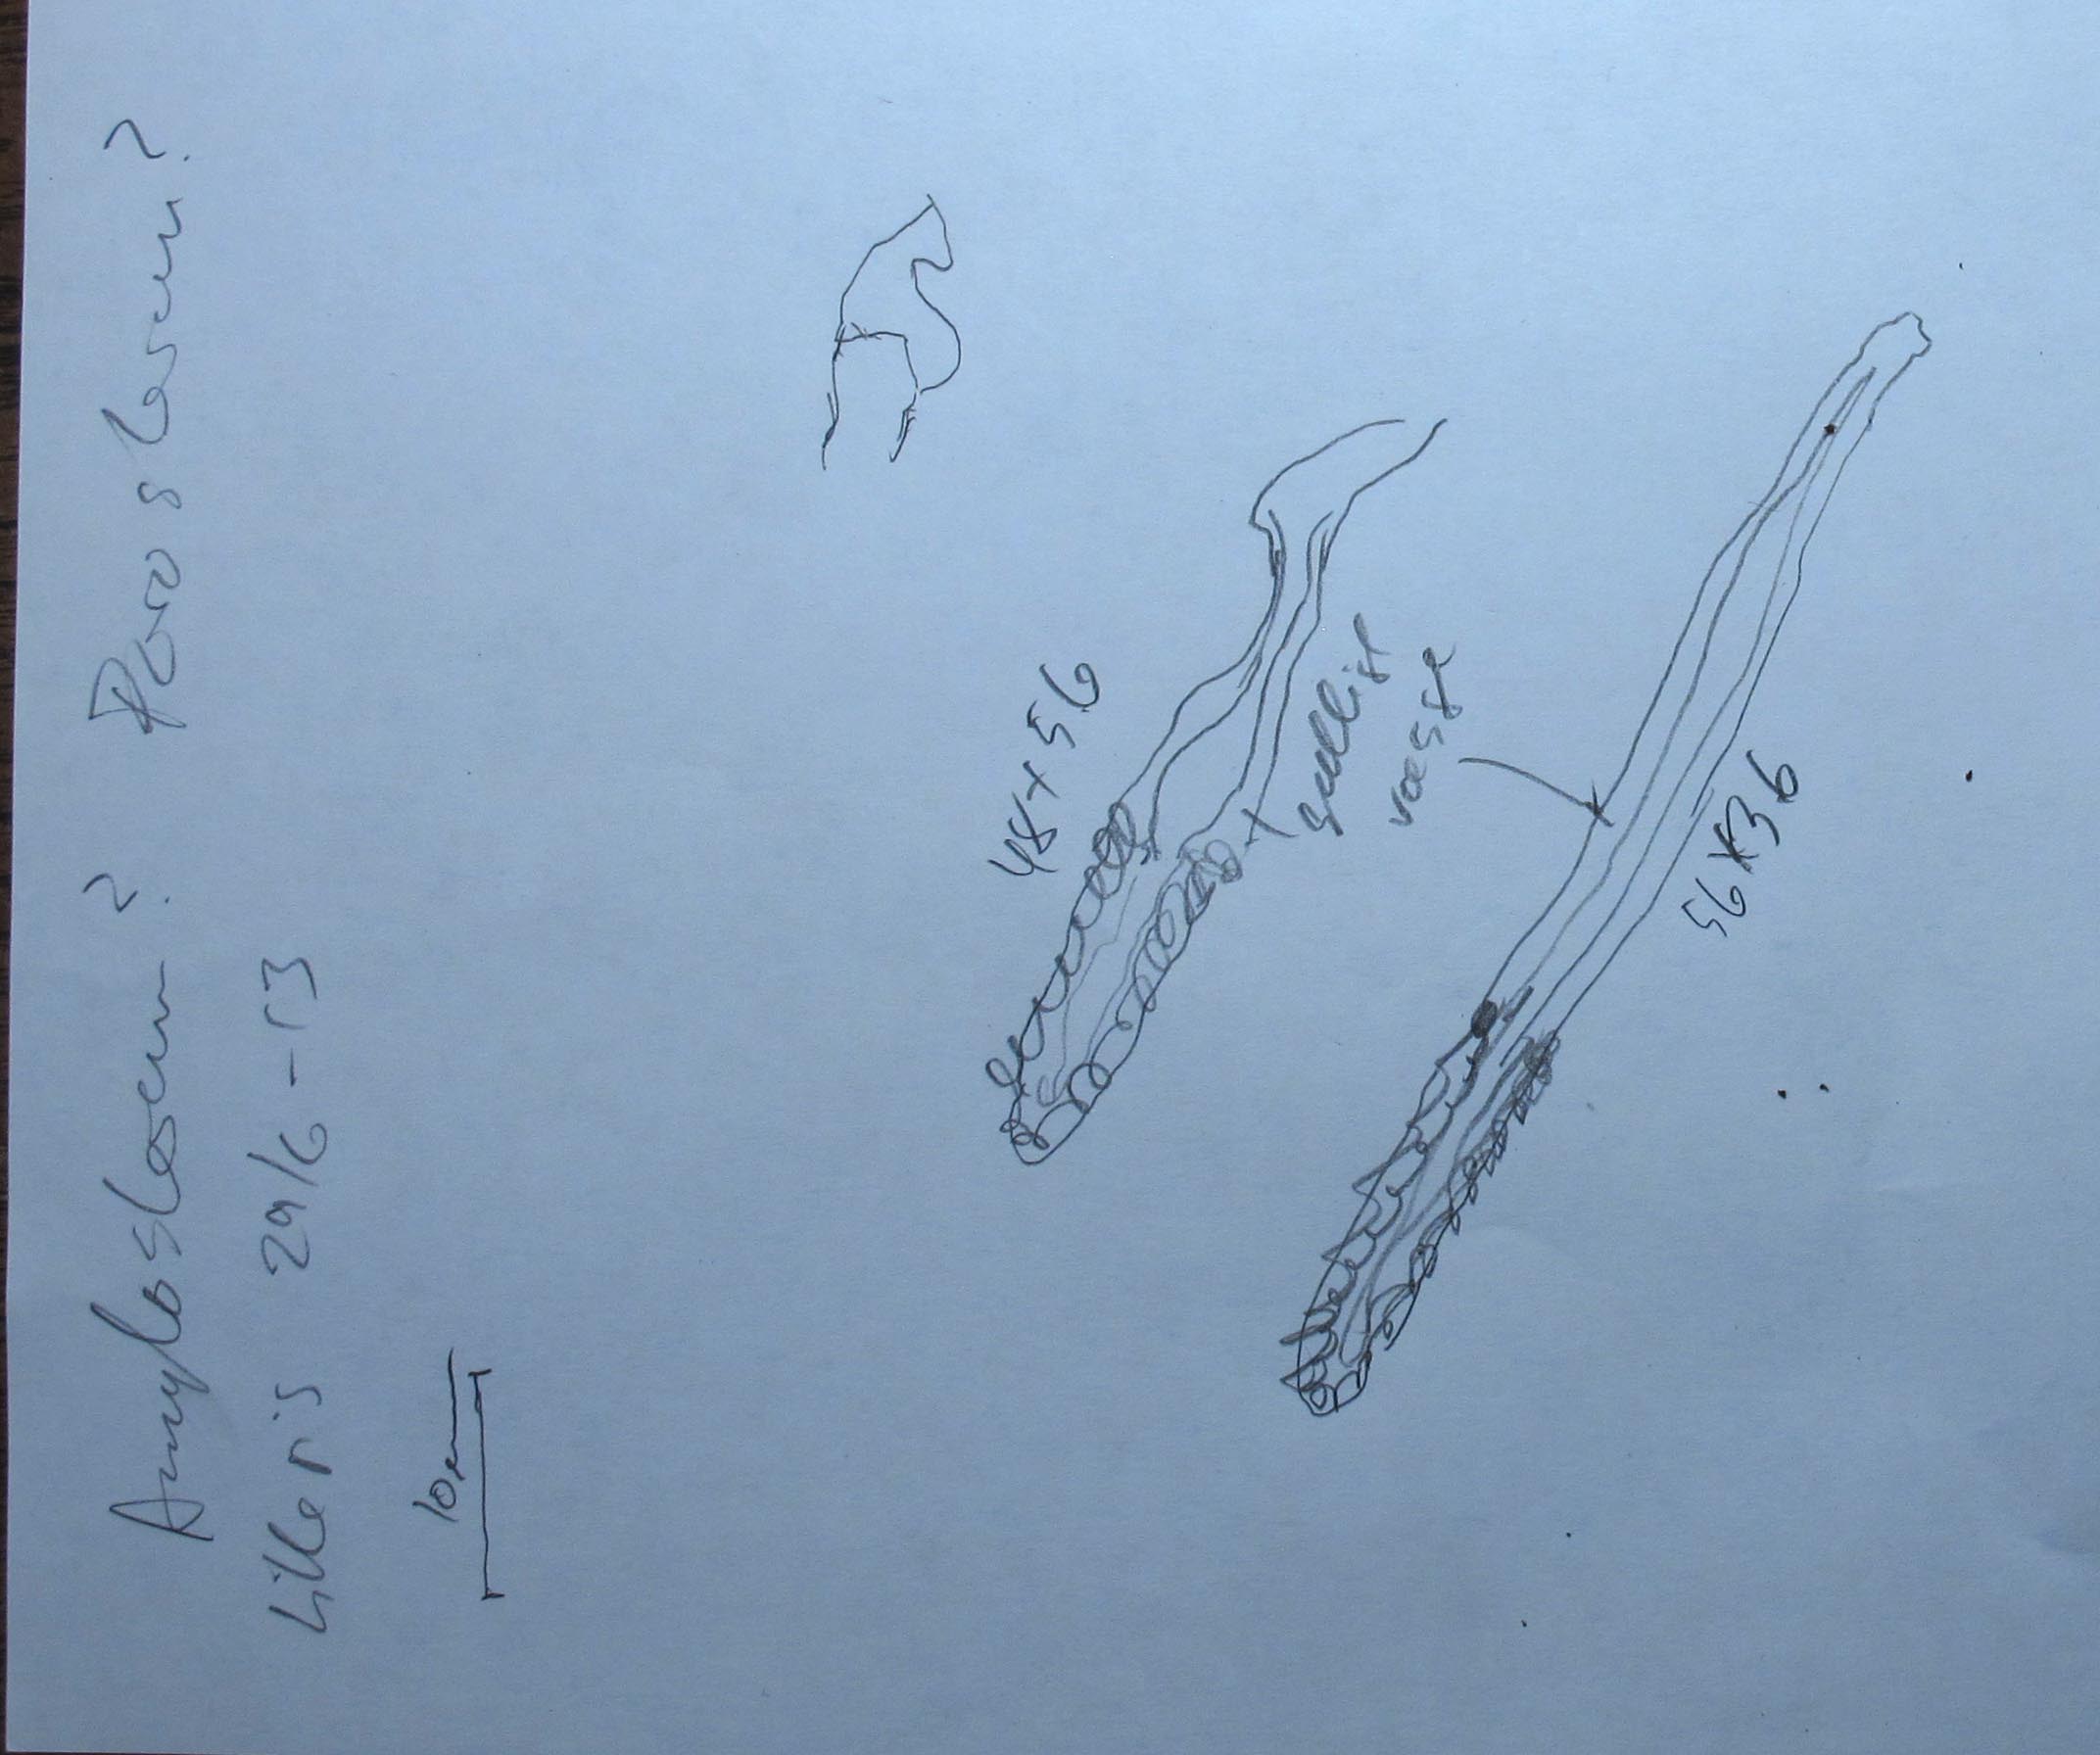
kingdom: Fungi
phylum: Basidiomycota
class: Agaricomycetes
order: Russulales
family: Echinodontiaceae
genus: Amylostereum
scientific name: Amylostereum chailletii
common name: gran-lædersvamp
